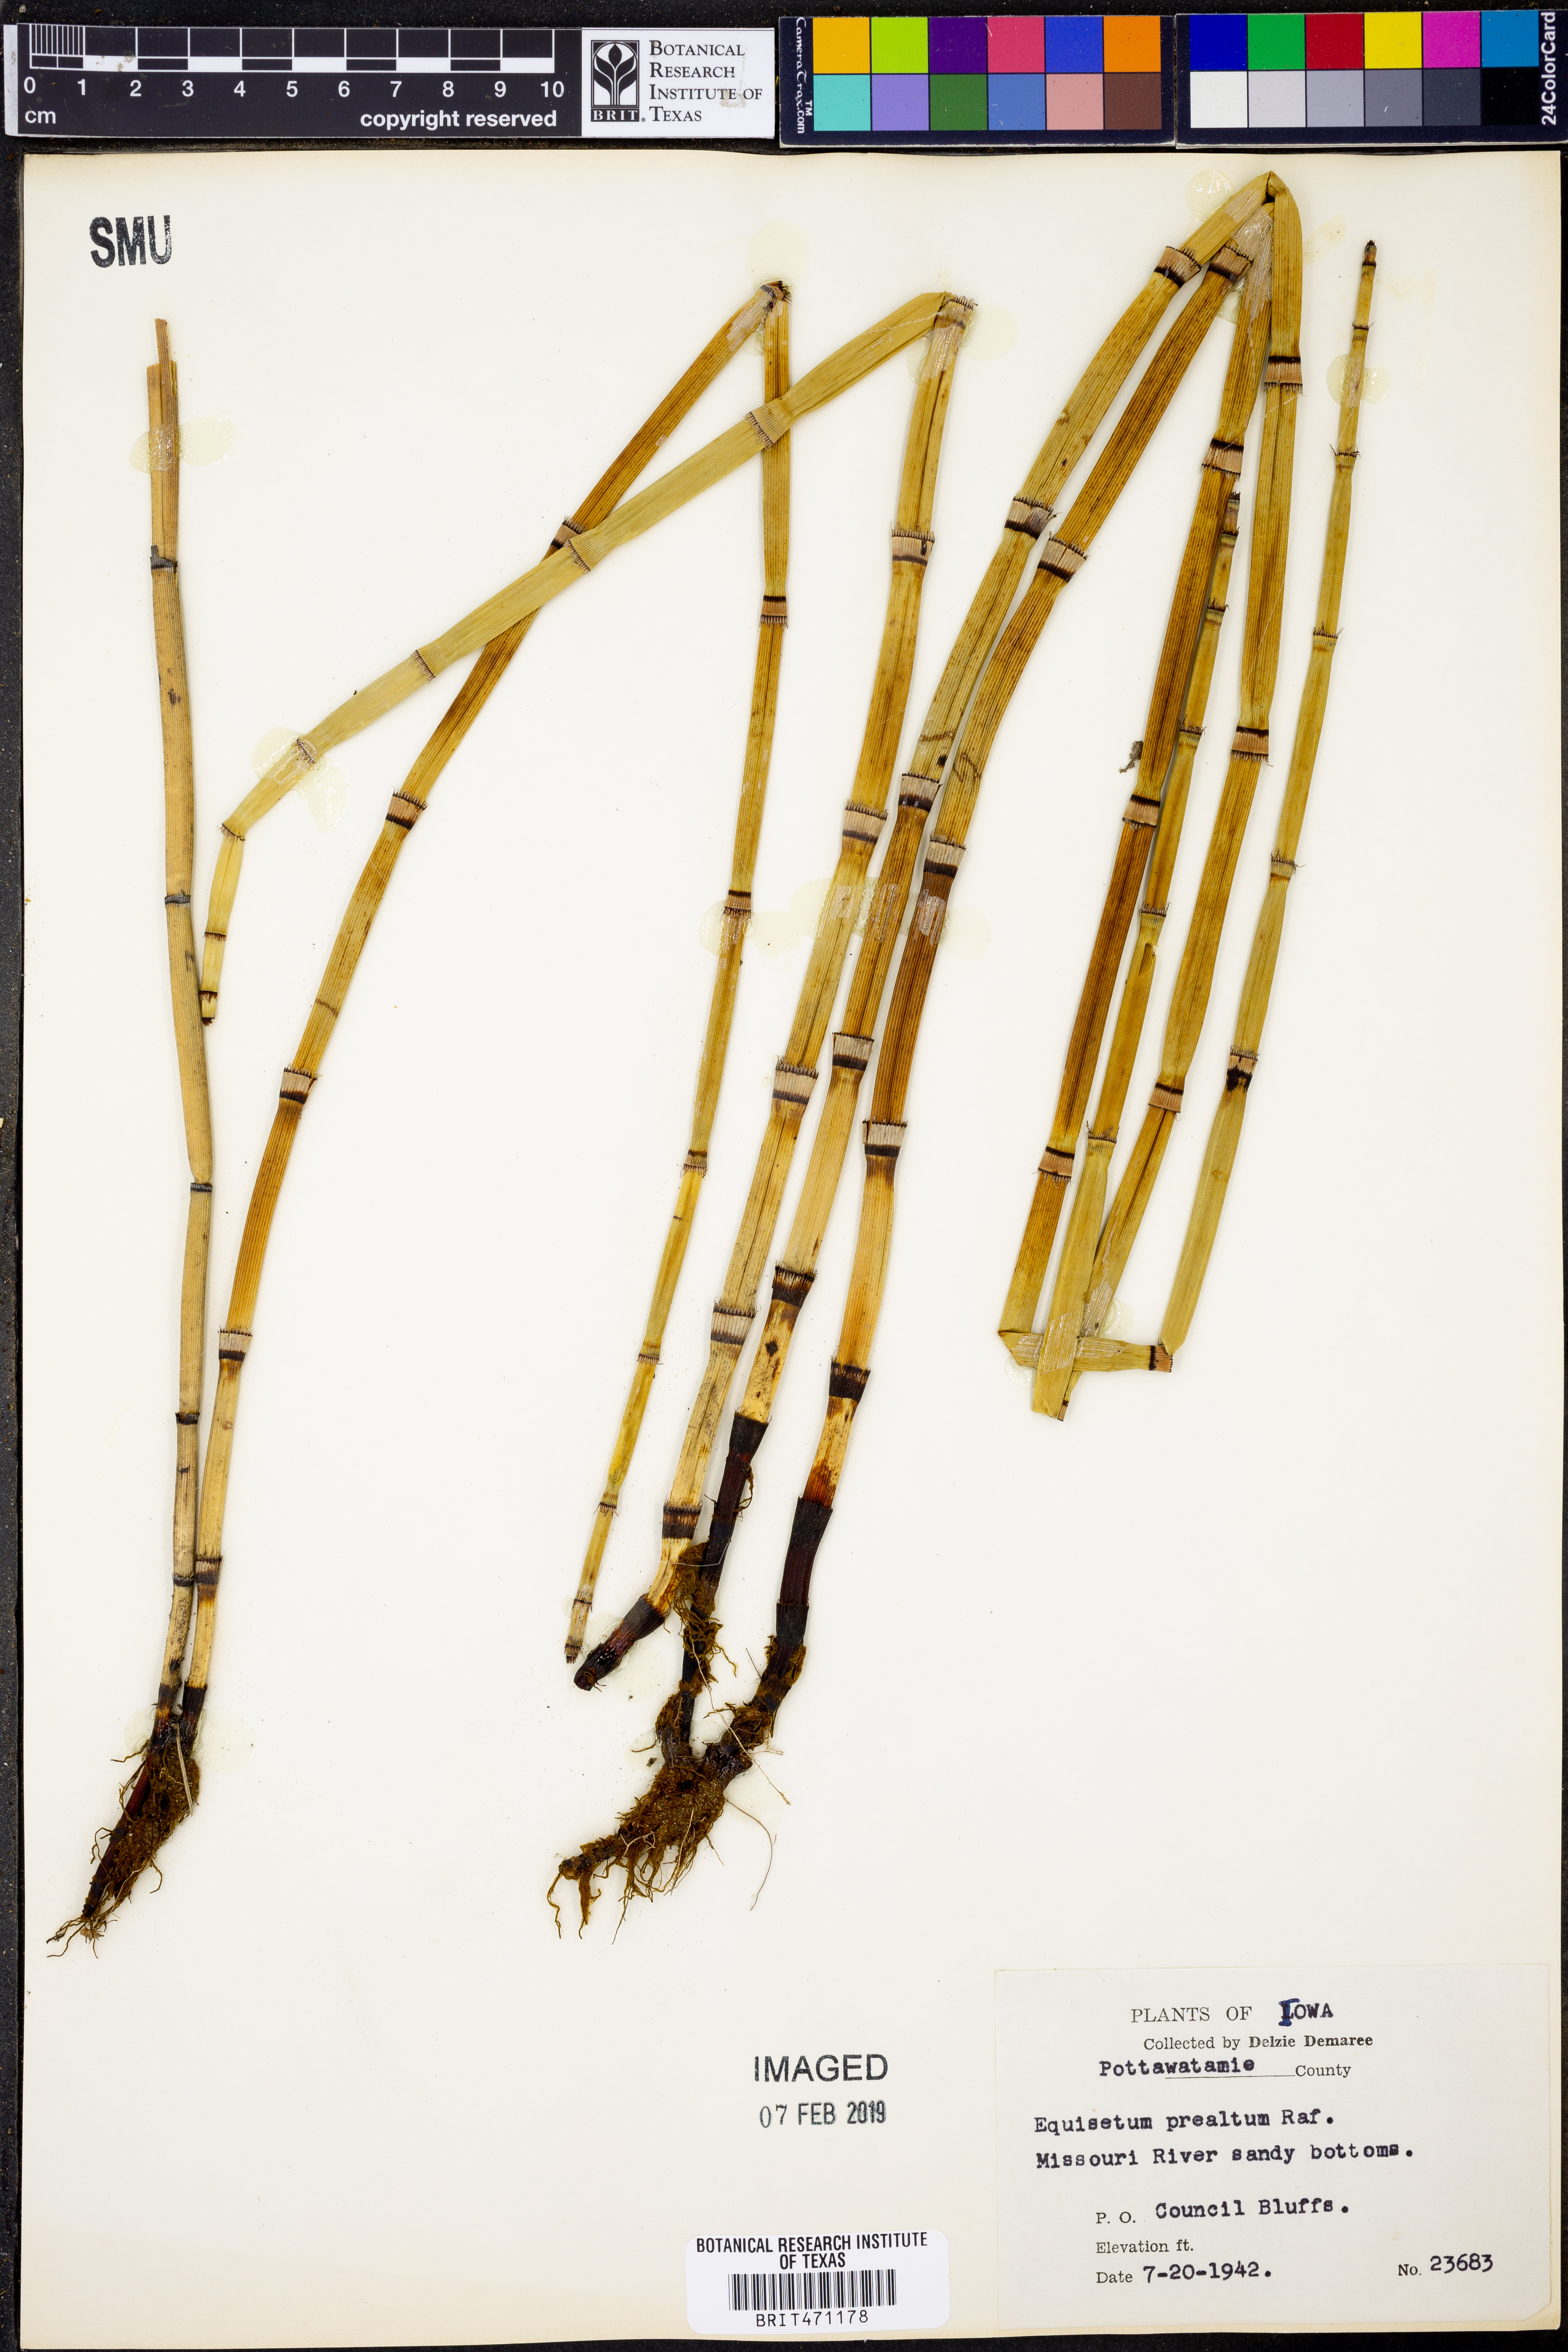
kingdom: Plantae
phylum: Tracheophyta
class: Polypodiopsida
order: Equisetales
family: Equisetaceae
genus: Equisetum
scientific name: Equisetum praealtum
